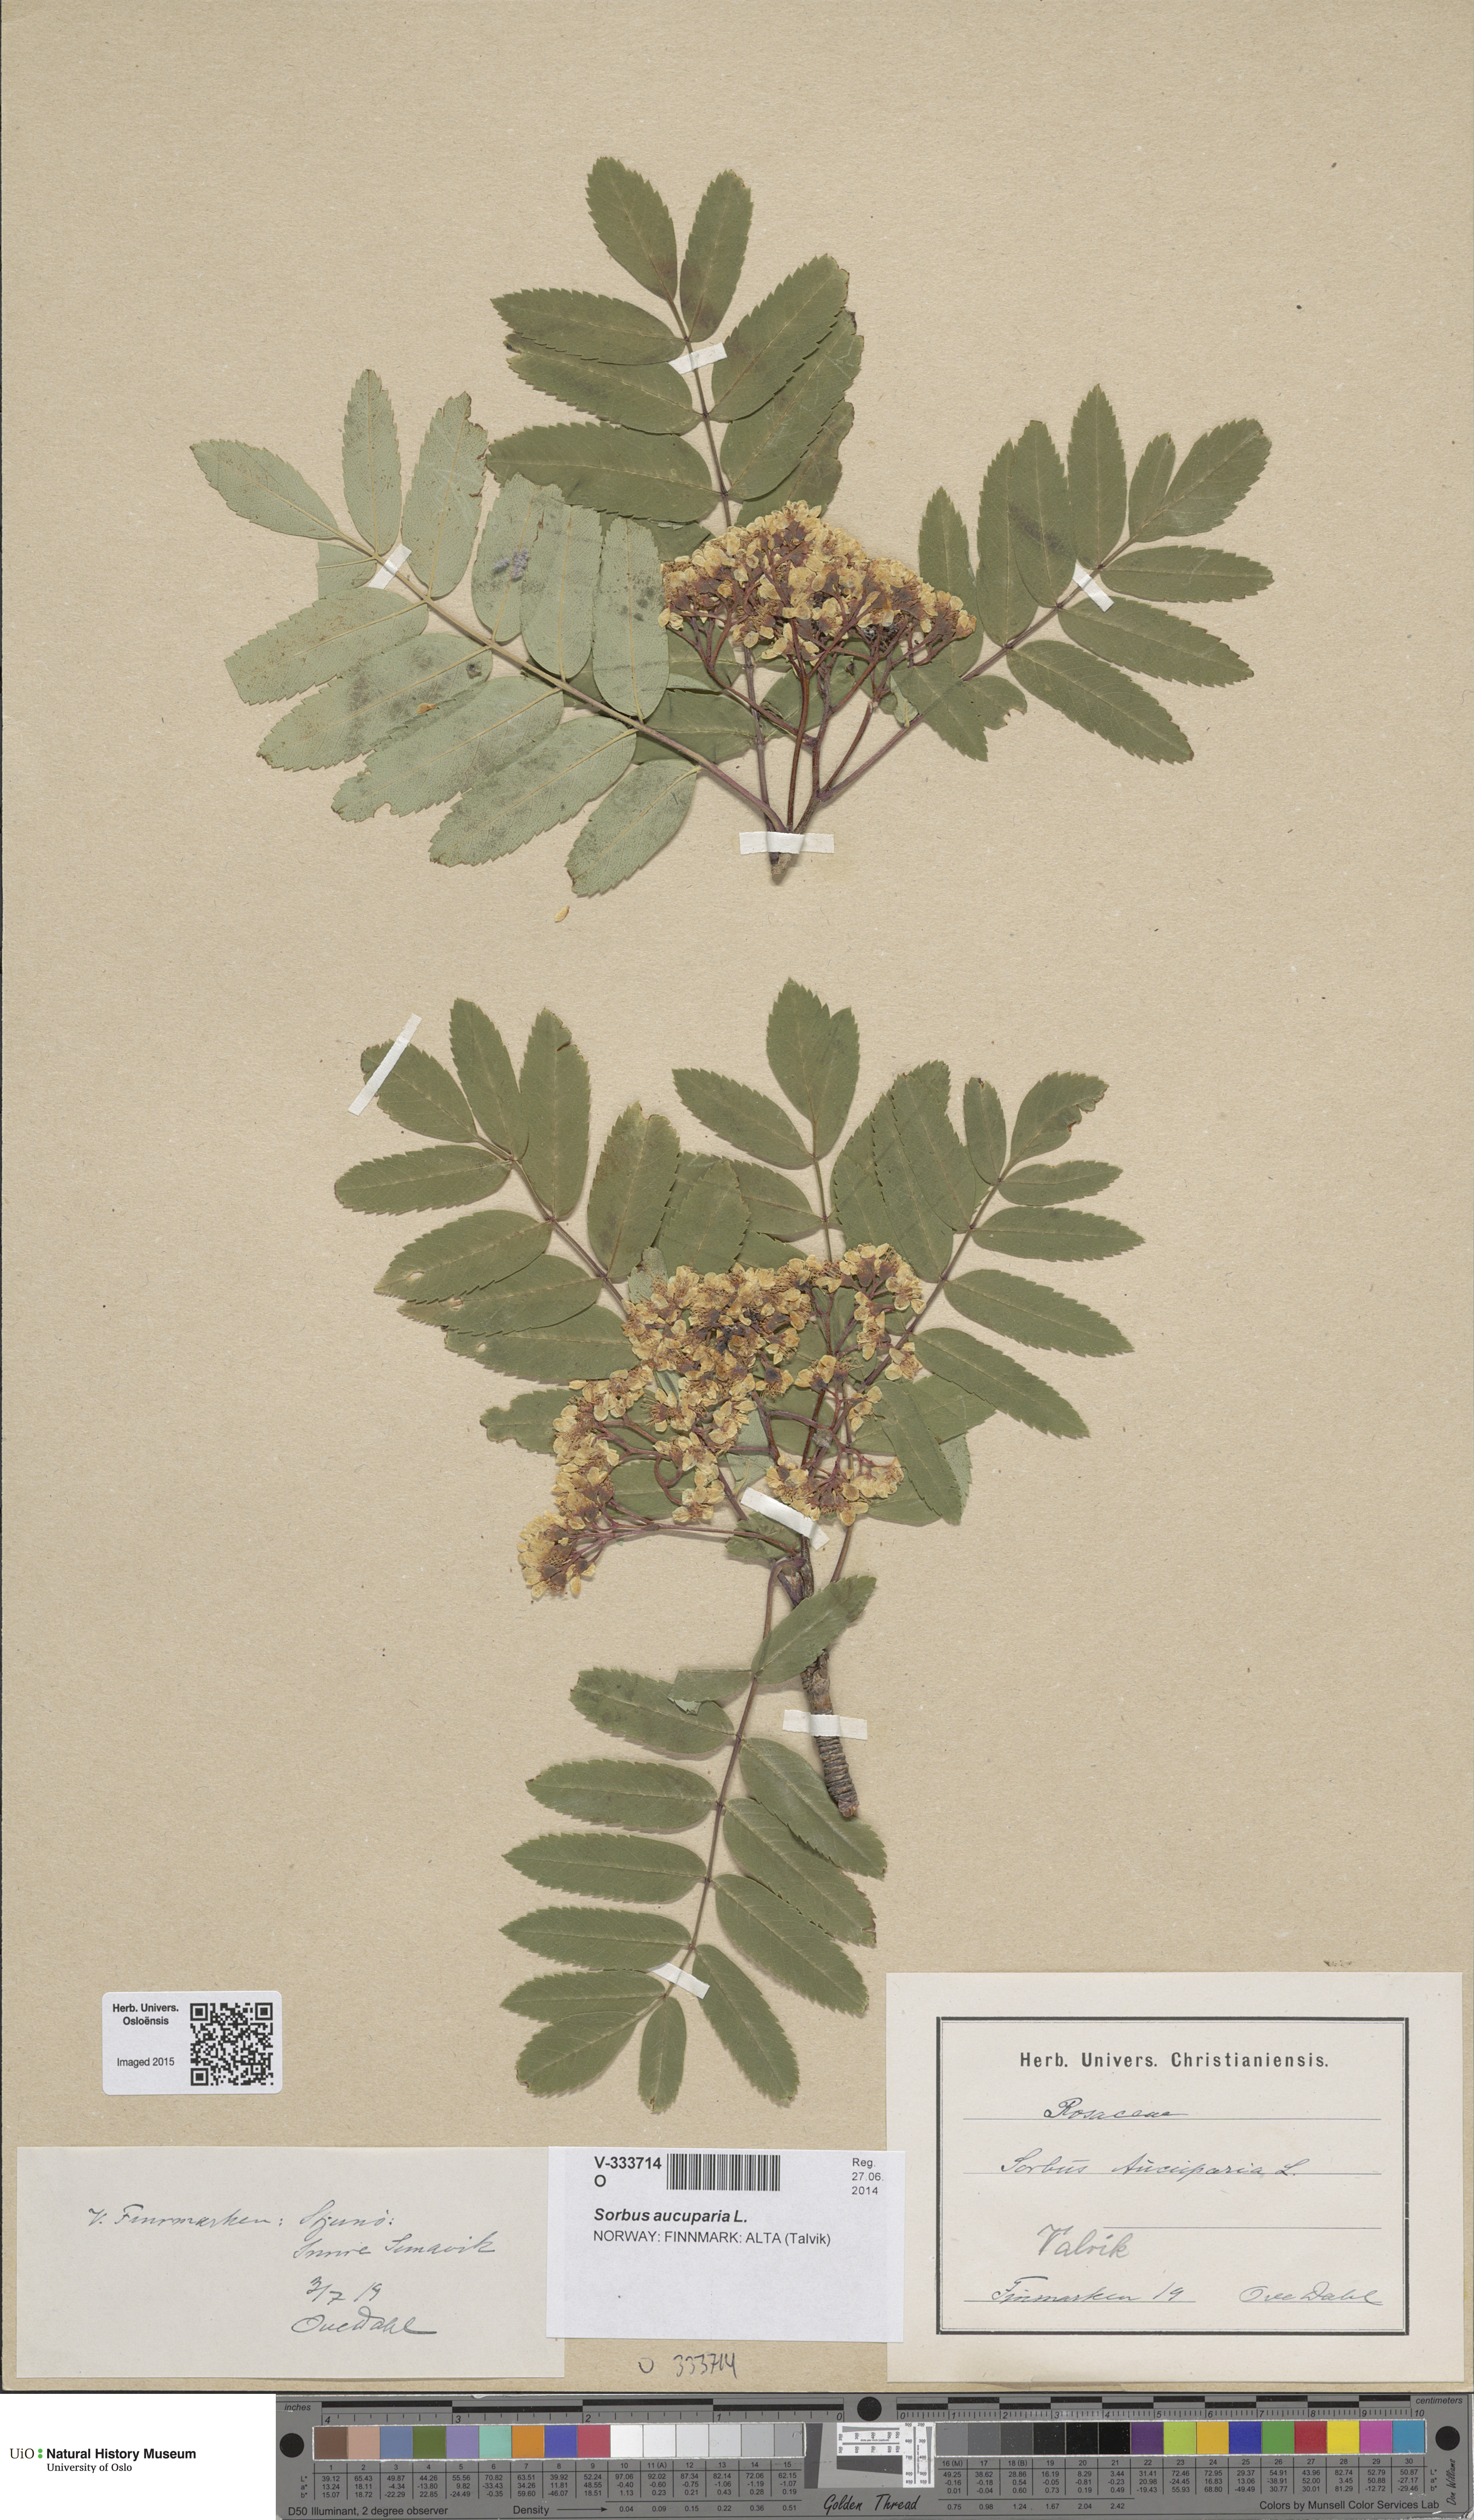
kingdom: Plantae
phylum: Tracheophyta
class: Magnoliopsida
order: Rosales
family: Rosaceae
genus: Sorbus
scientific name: Sorbus aucuparia
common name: Rowan
